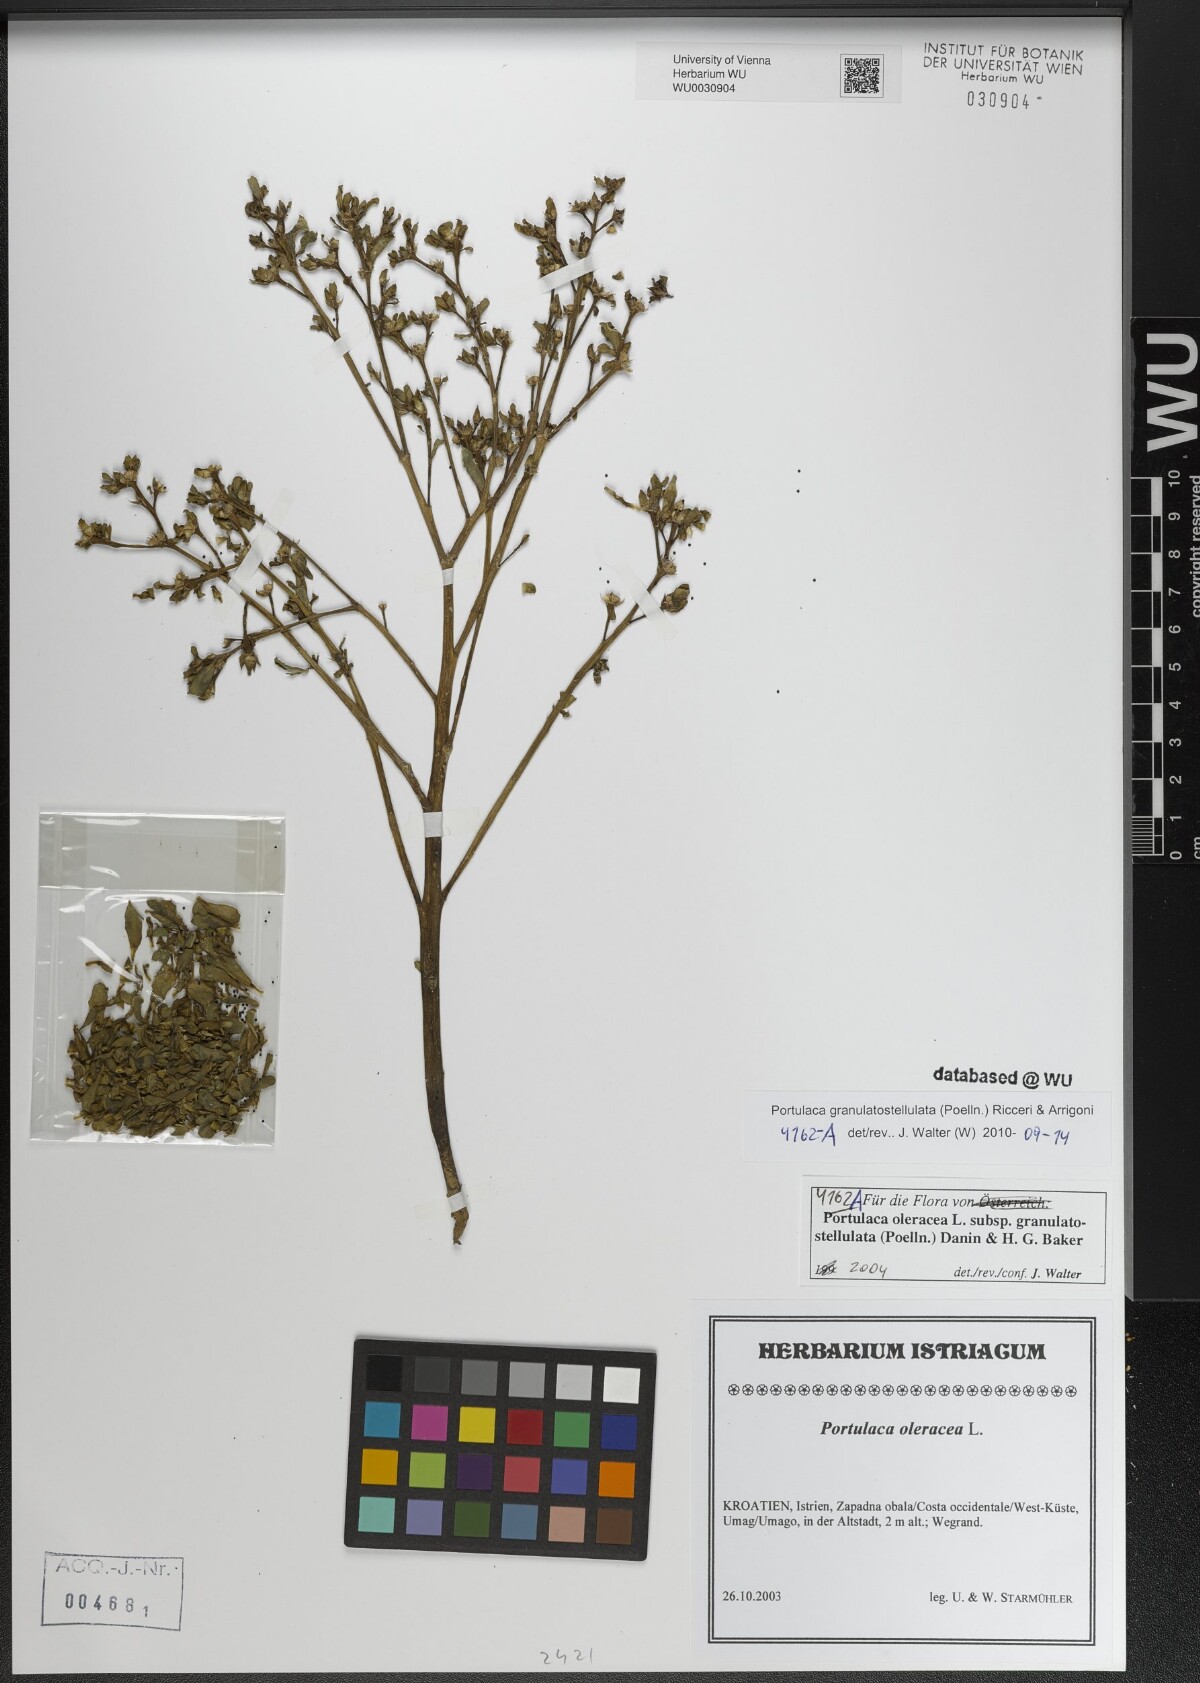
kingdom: Plantae
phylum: Tracheophyta
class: Magnoliopsida
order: Caryophyllales
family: Portulacaceae
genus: Portulaca
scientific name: Portulaca granulatostellulata
